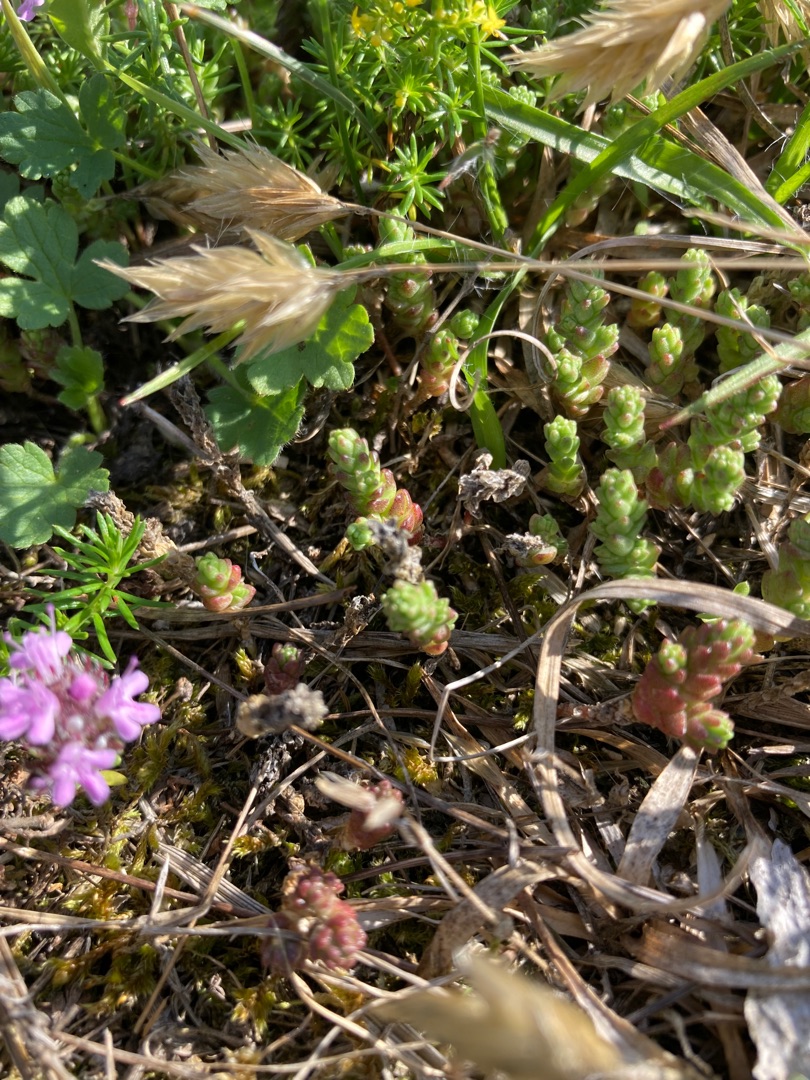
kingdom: Plantae
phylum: Tracheophyta
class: Magnoliopsida
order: Saxifragales
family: Crassulaceae
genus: Sedum
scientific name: Sedum acre
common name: Bidende stenurt
